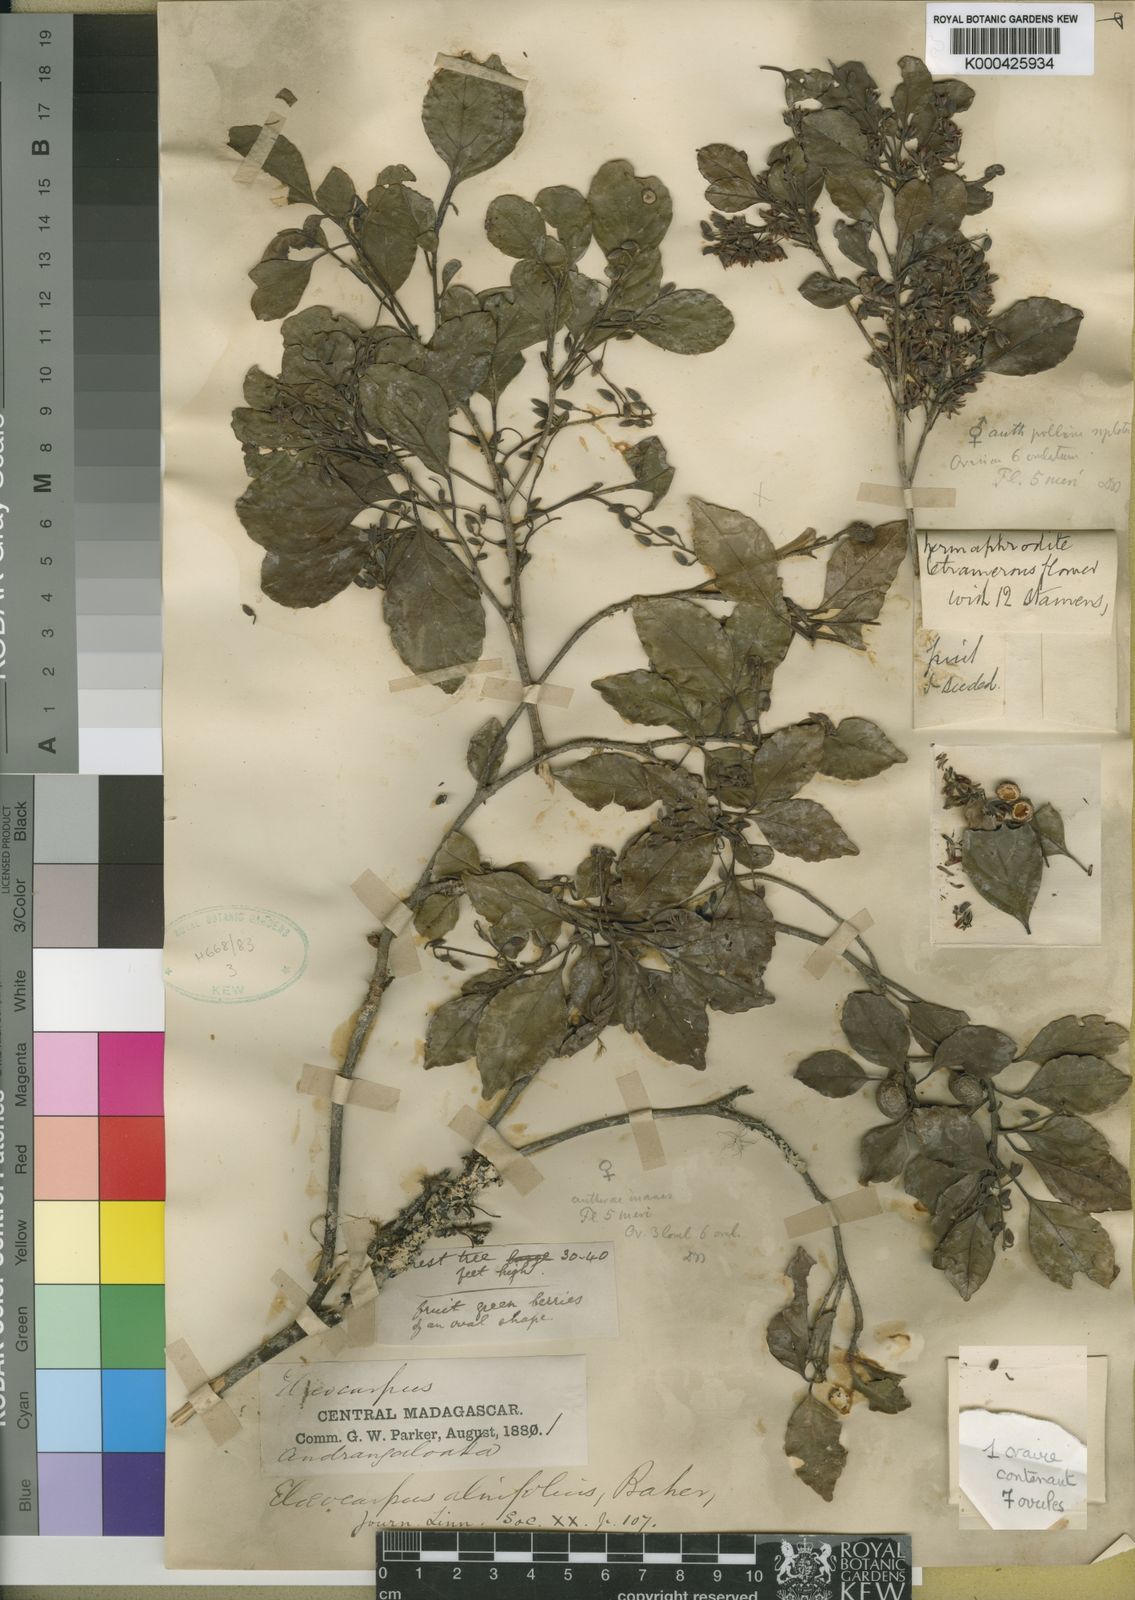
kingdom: Plantae
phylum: Tracheophyta
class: Magnoliopsida
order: Oxalidales
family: Elaeocarpaceae
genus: Elaeocarpus
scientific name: Elaeocarpus alnifolius
